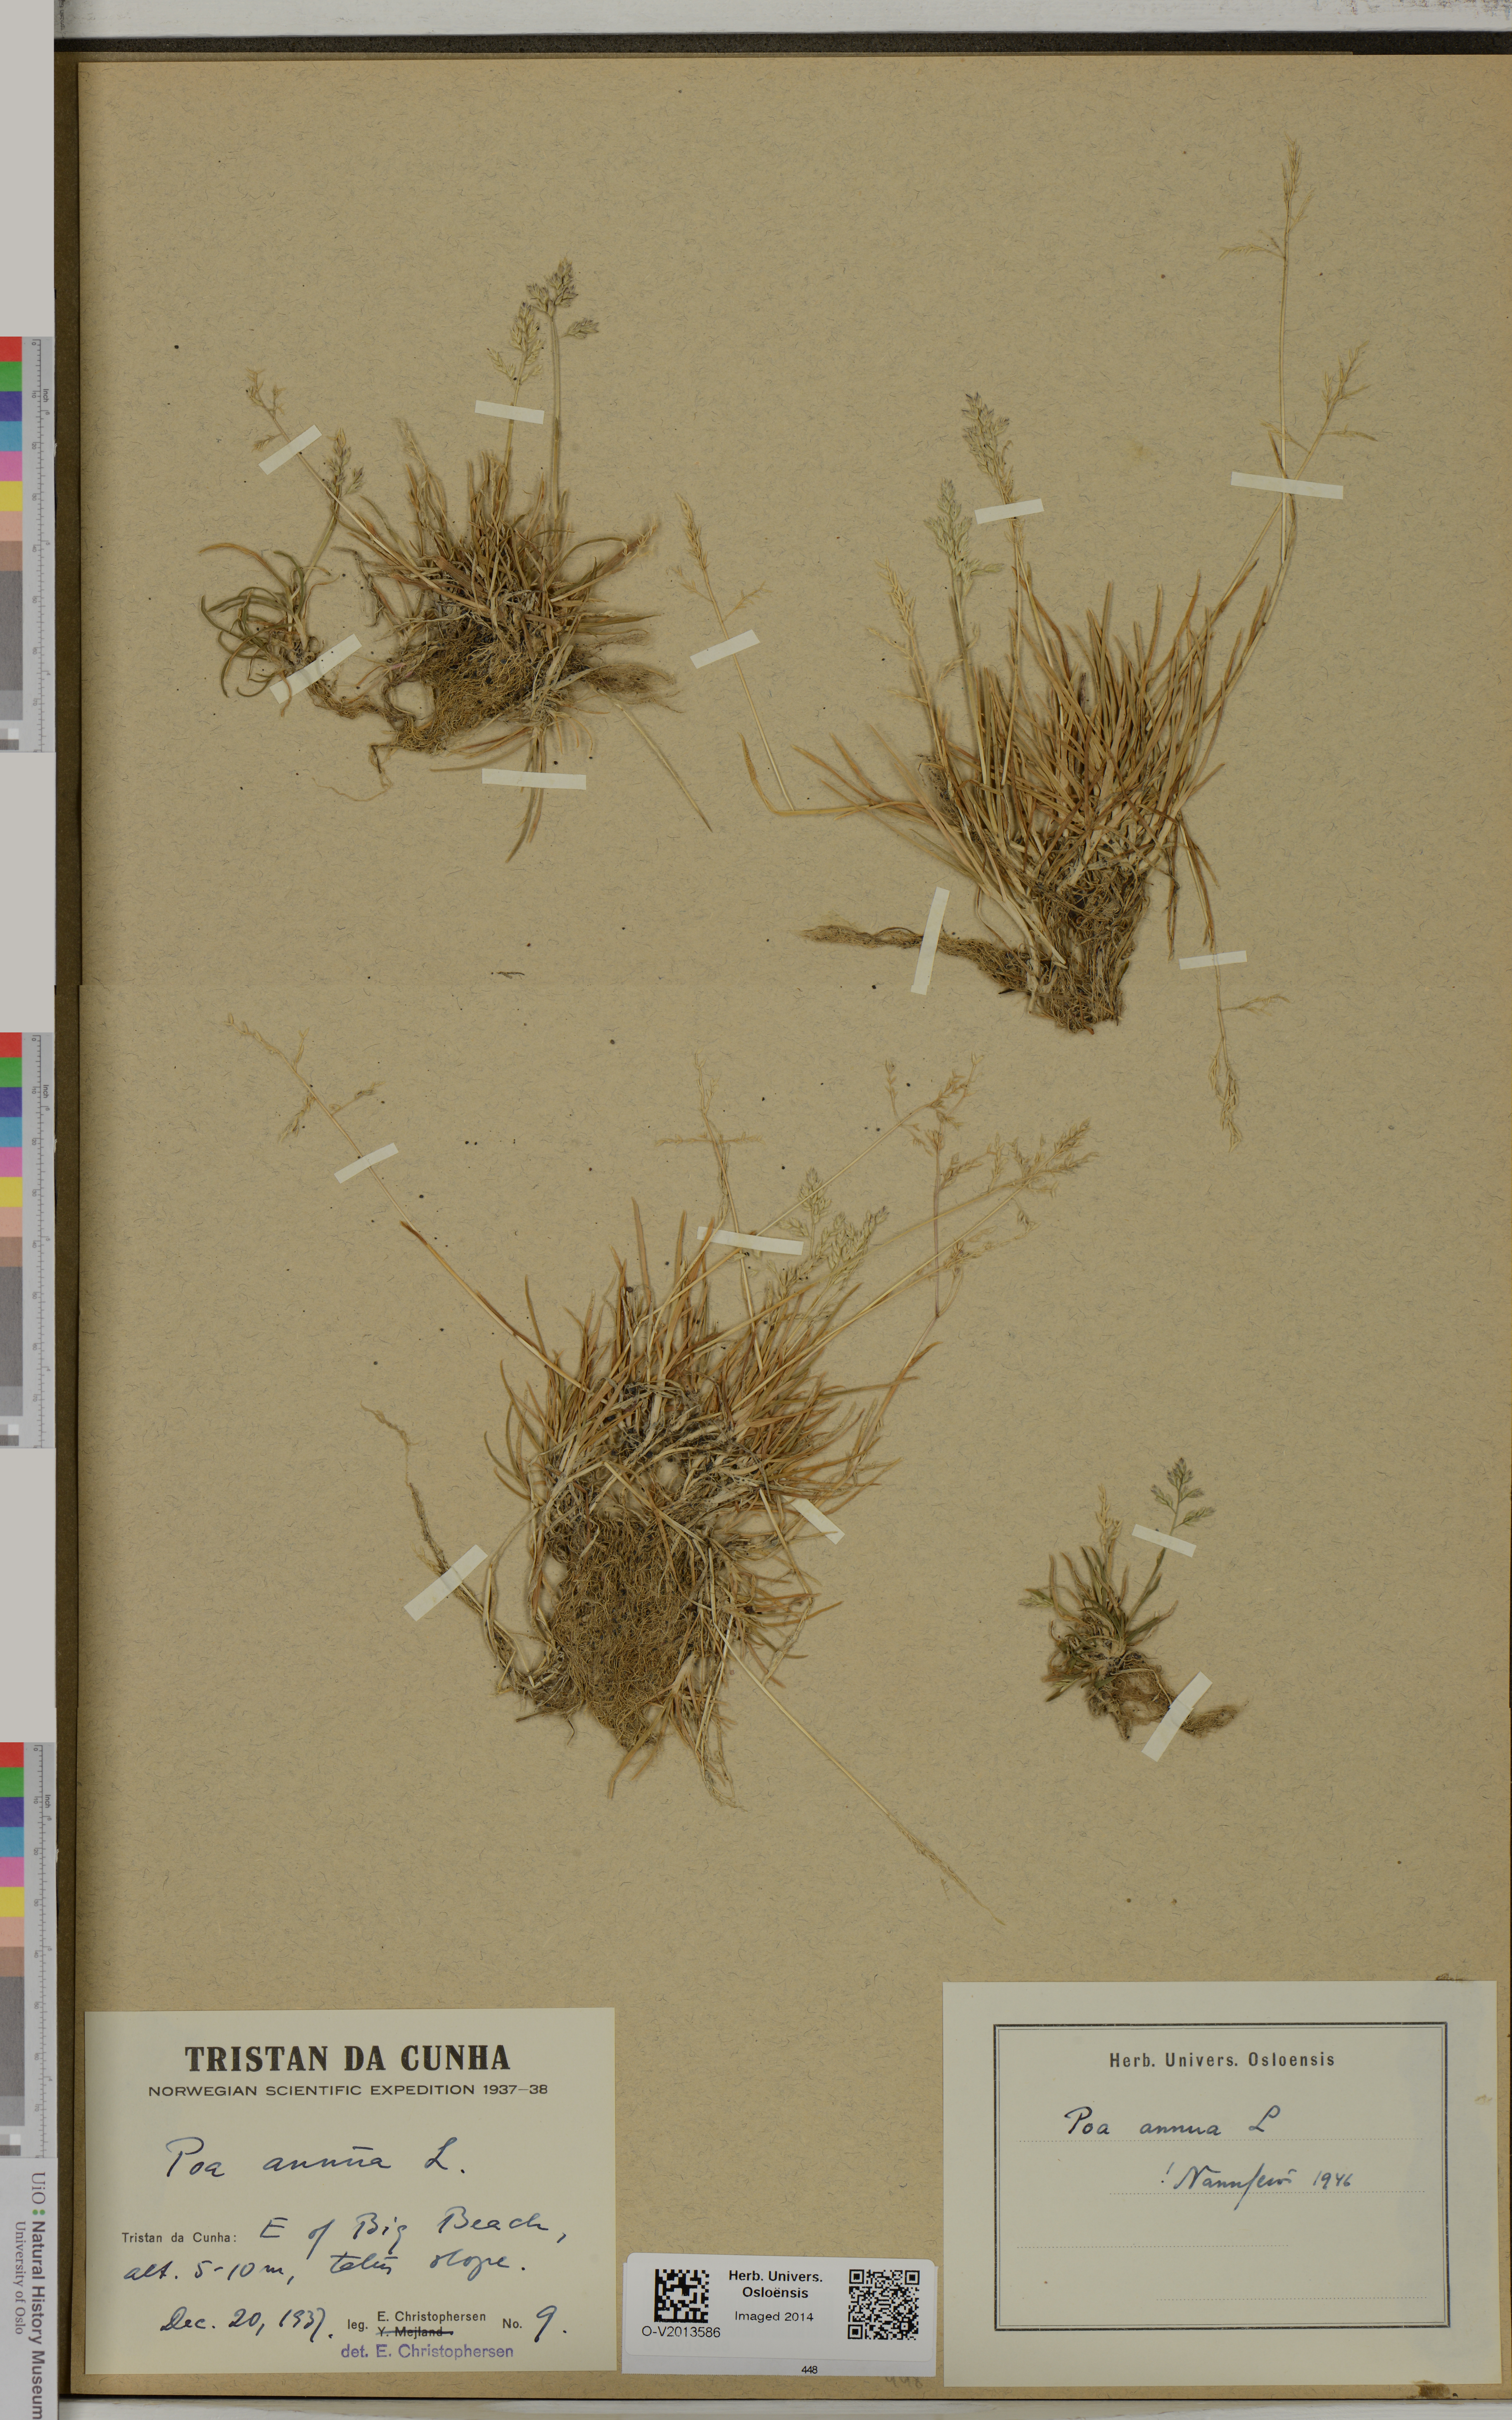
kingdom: Plantae
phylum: Tracheophyta
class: Liliopsida
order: Poales
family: Poaceae
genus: Poa
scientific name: Poa annua
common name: Annual bluegrass
